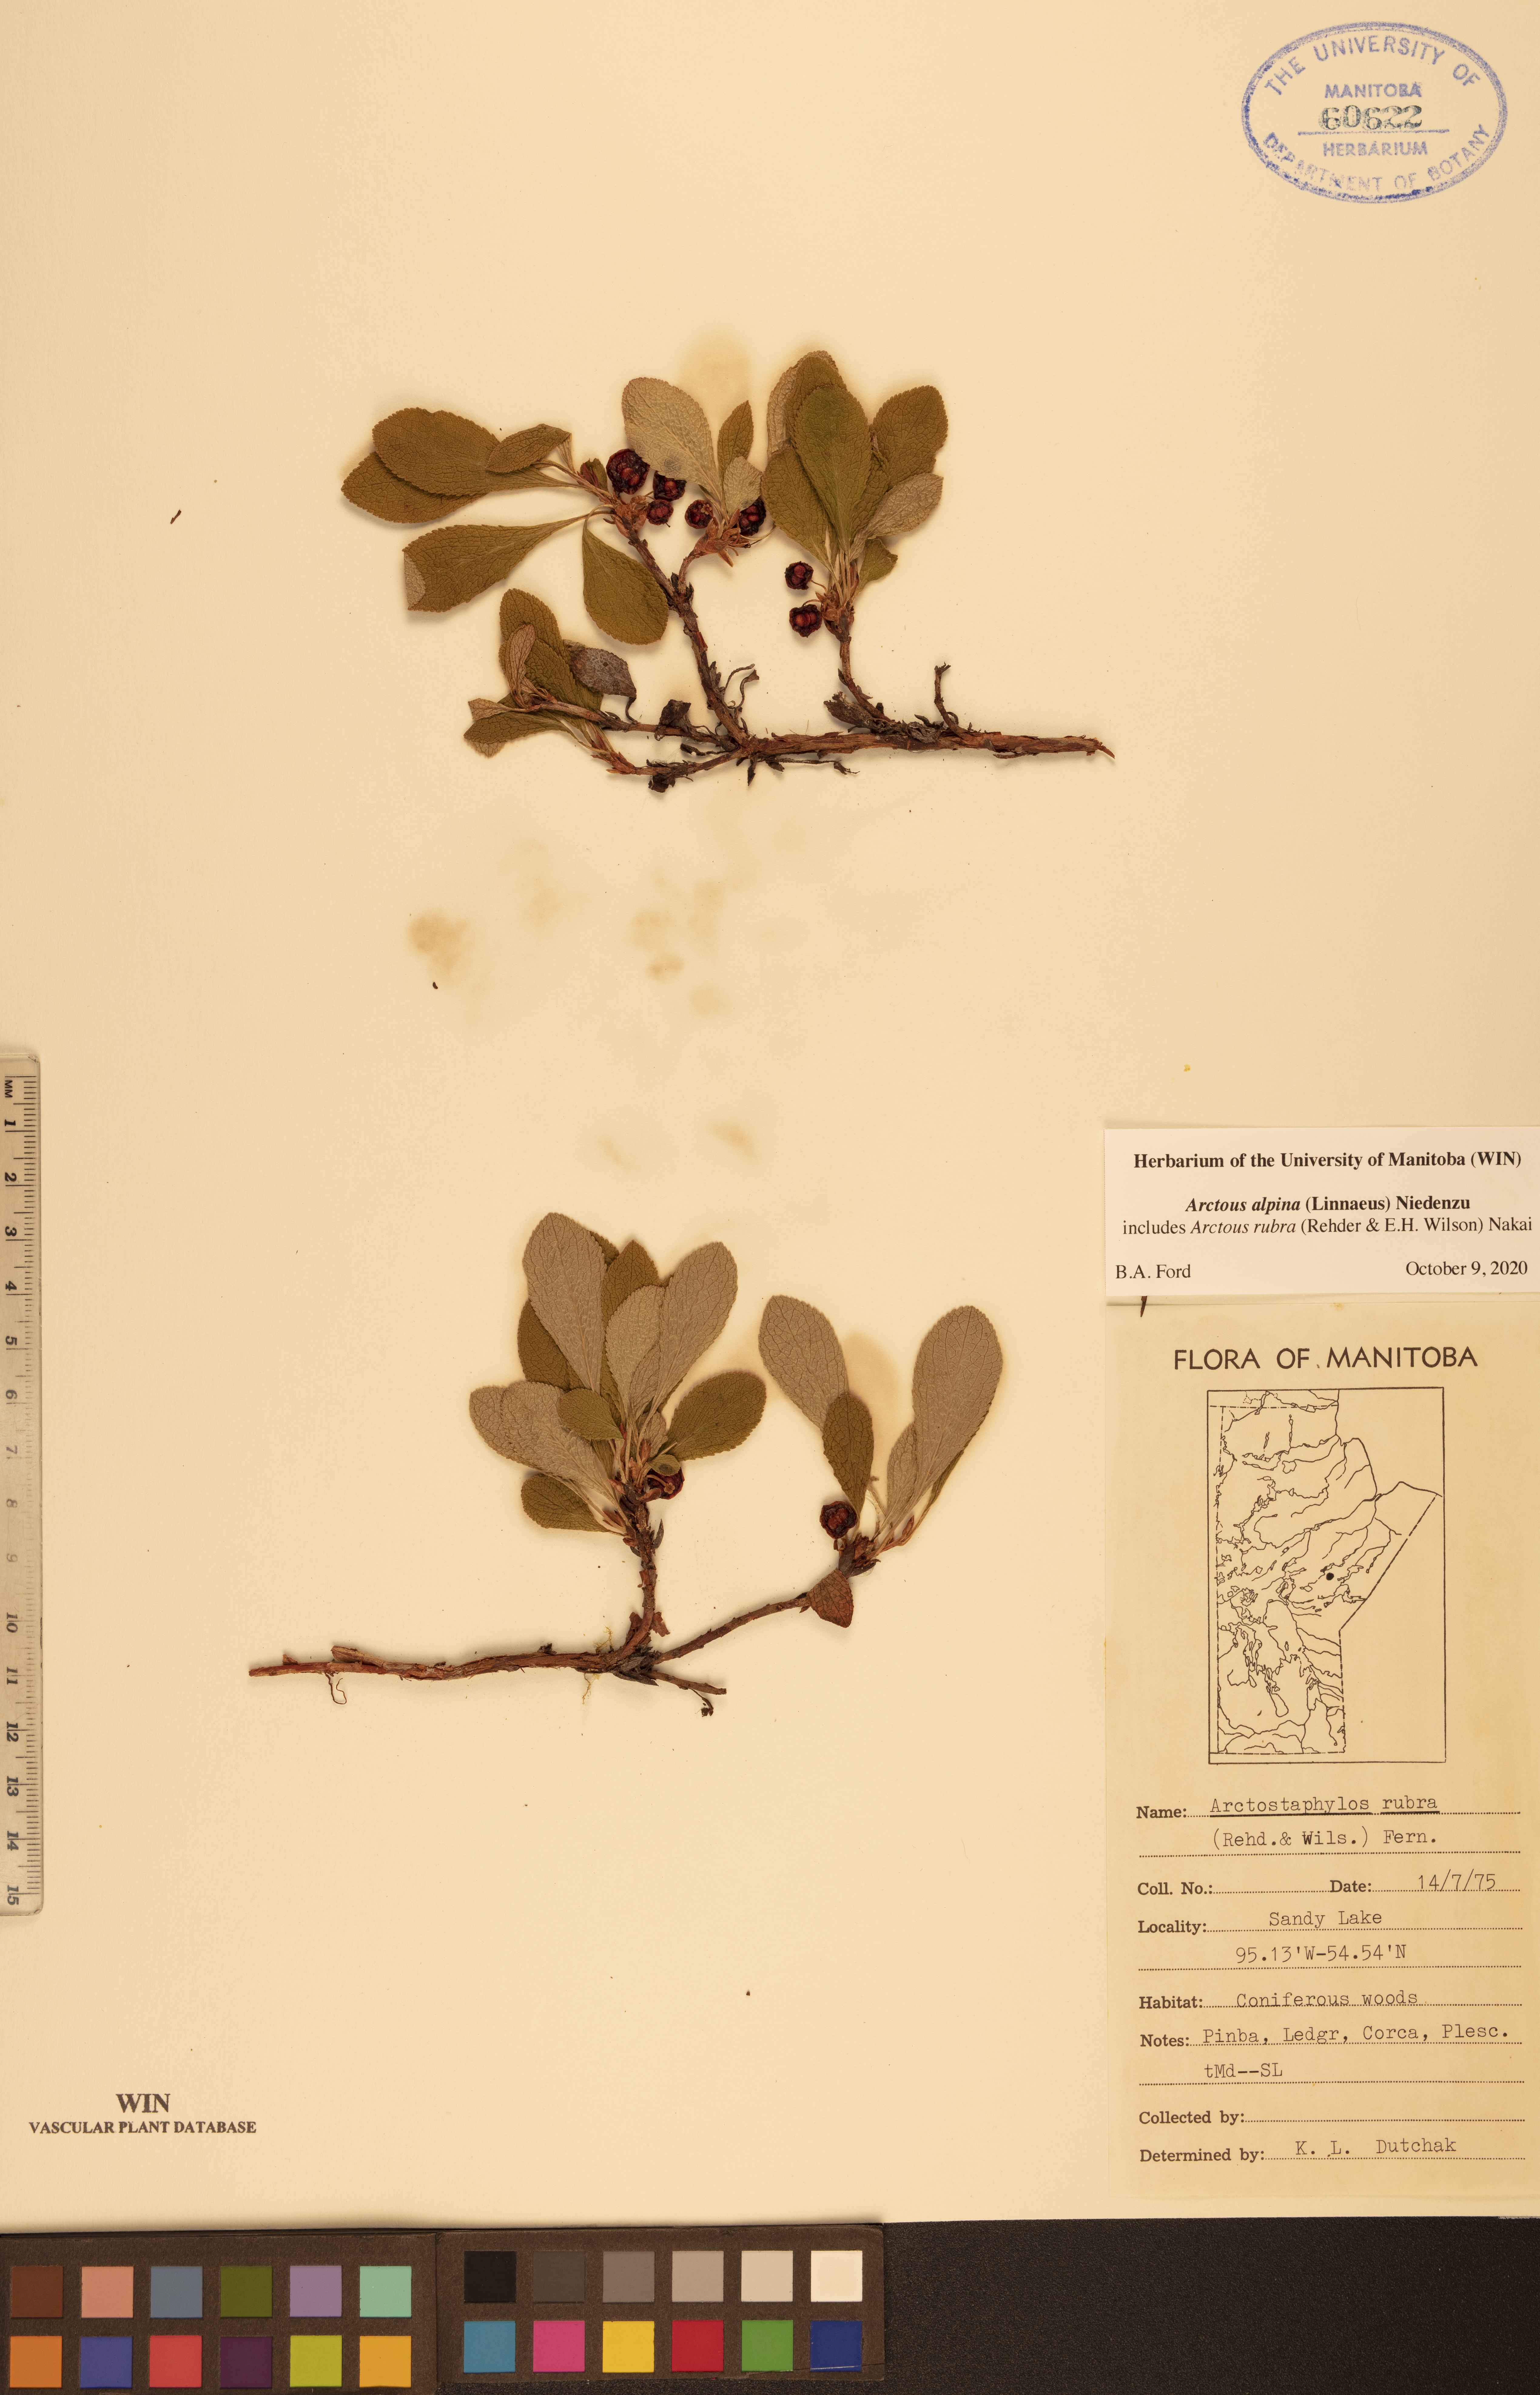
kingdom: Plantae
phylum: Tracheophyta
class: Magnoliopsida
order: Ericales
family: Ericaceae
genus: Arctostaphylos
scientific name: Arctostaphylos alpinus
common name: Alpine bearberry
